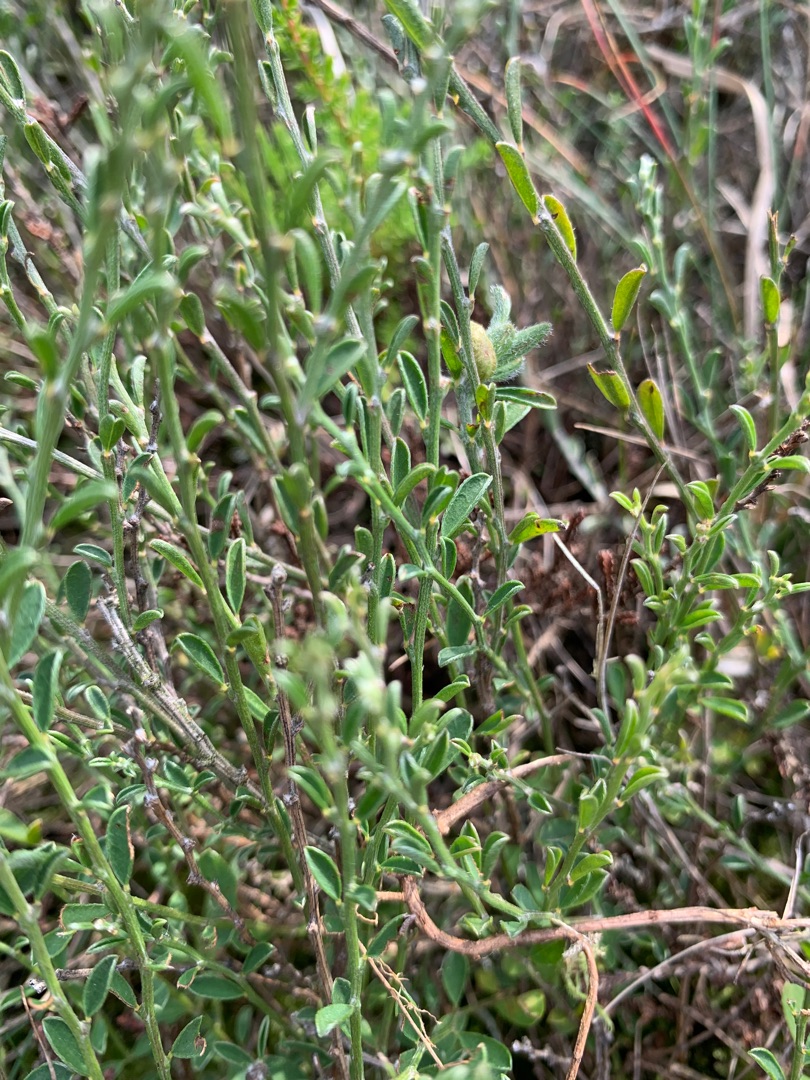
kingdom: Plantae
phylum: Tracheophyta
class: Magnoliopsida
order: Fabales
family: Fabaceae
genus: Genista
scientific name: Genista pilosa
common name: Håret visse
